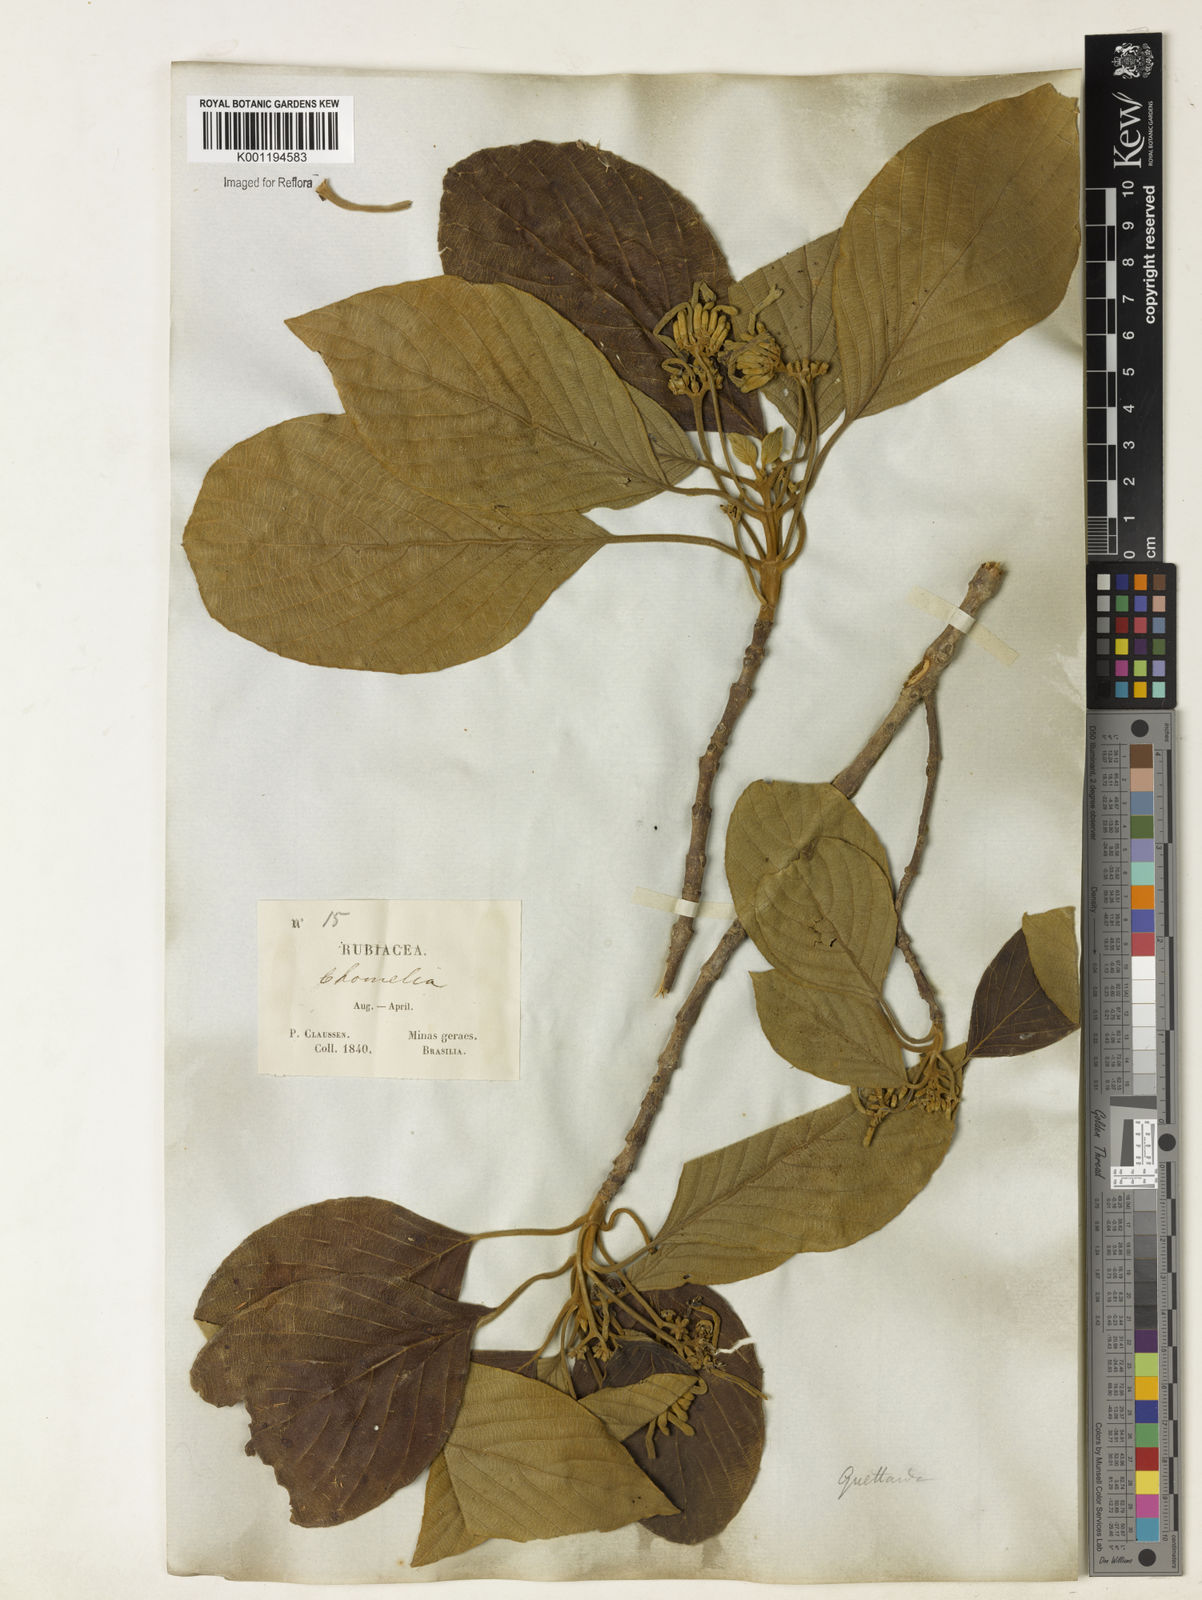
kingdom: Plantae
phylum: Tracheophyta
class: Magnoliopsida
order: Gentianales
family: Rubiaceae
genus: Guettarda
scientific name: Guettarda viburnoides
